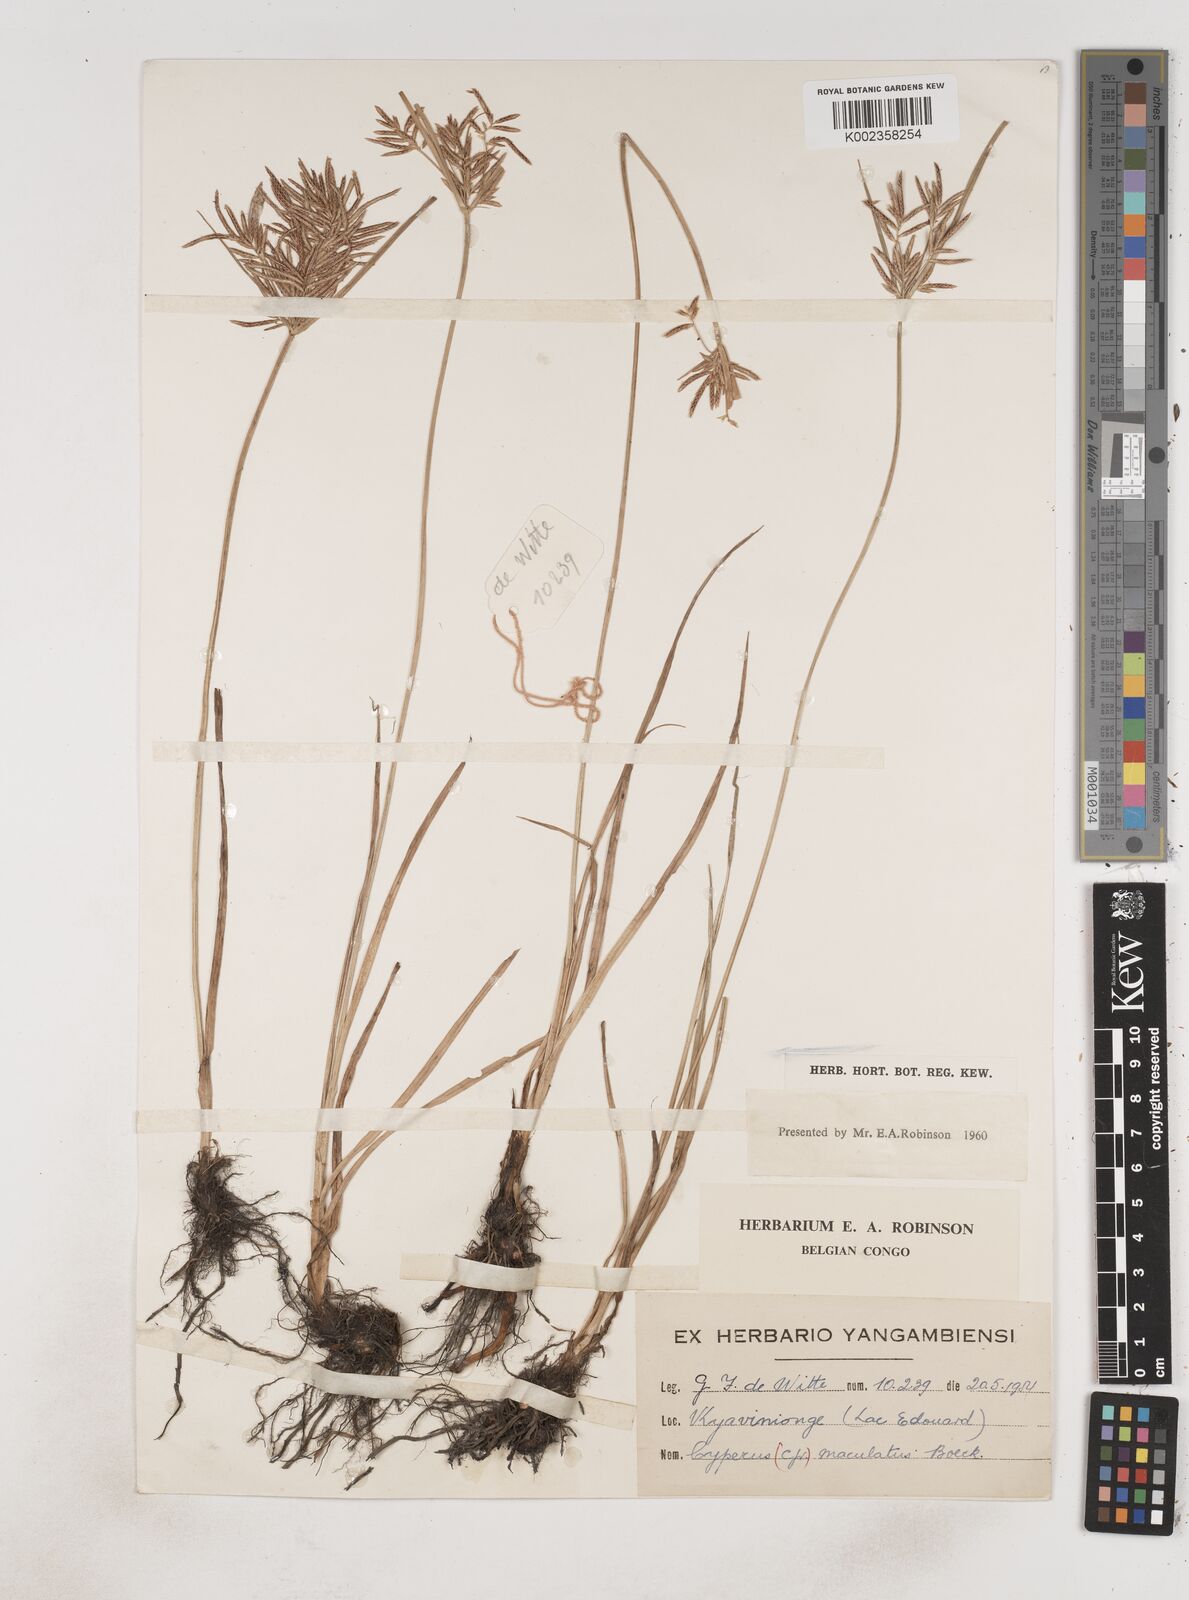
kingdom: Plantae
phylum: Tracheophyta
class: Liliopsida
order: Poales
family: Cyperaceae
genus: Cyperus
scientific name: Cyperus maculatus
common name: Maculated sedge
